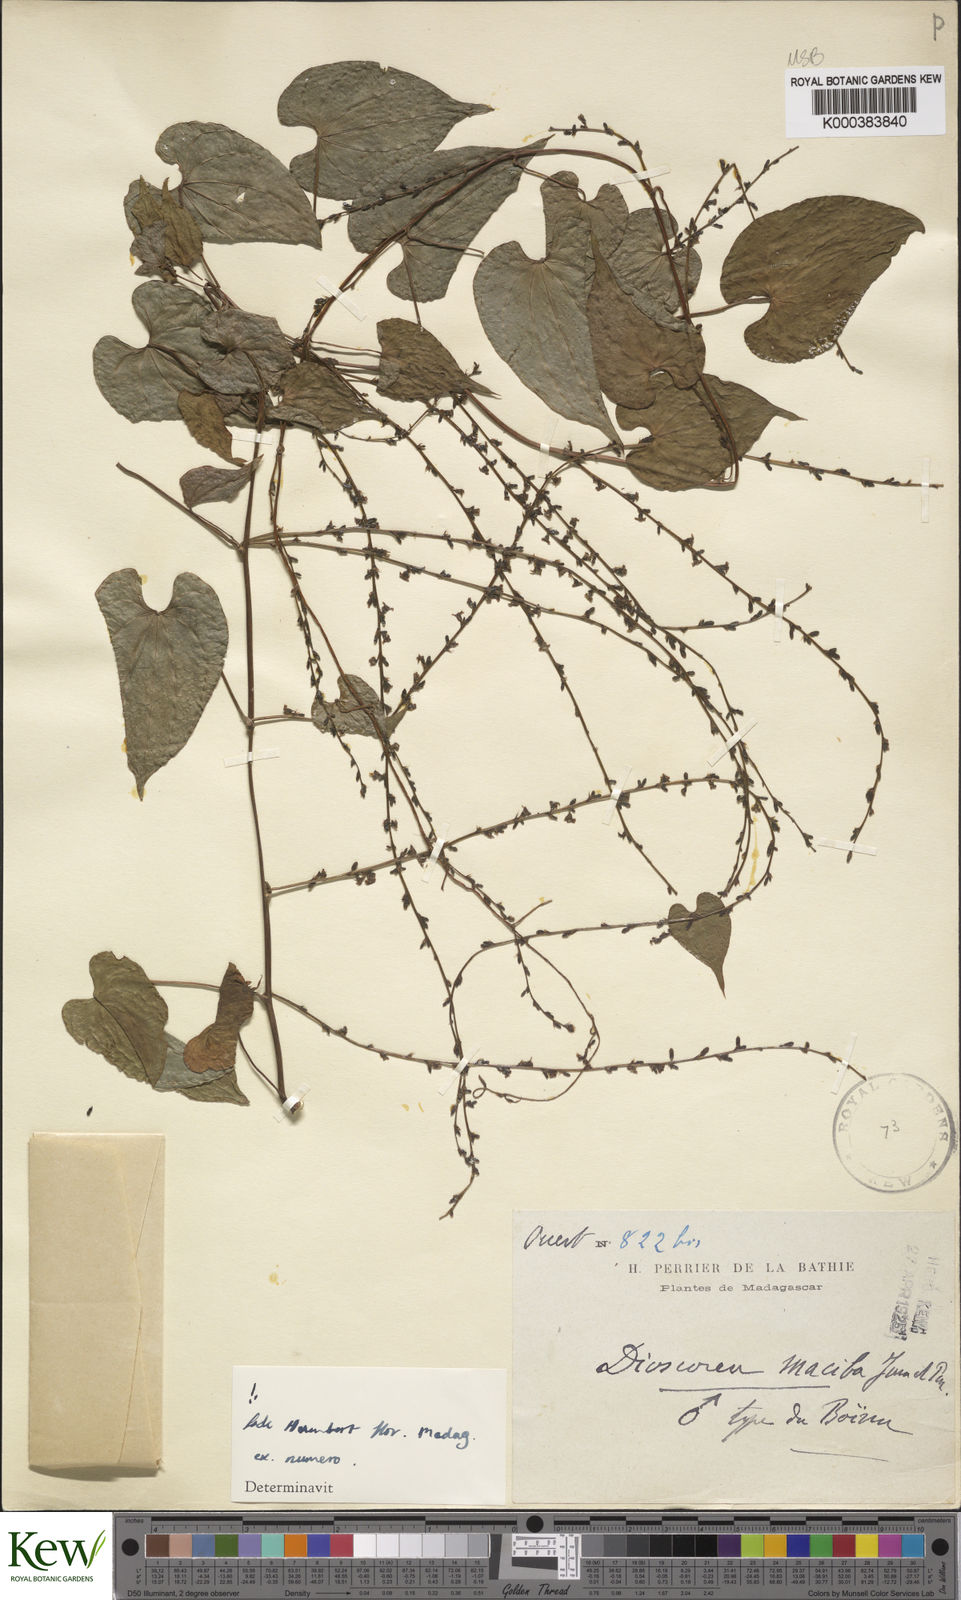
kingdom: Plantae
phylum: Tracheophyta
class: Liliopsida
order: Dioscoreales
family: Dioscoreaceae
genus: Dioscorea
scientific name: Dioscorea maciba
